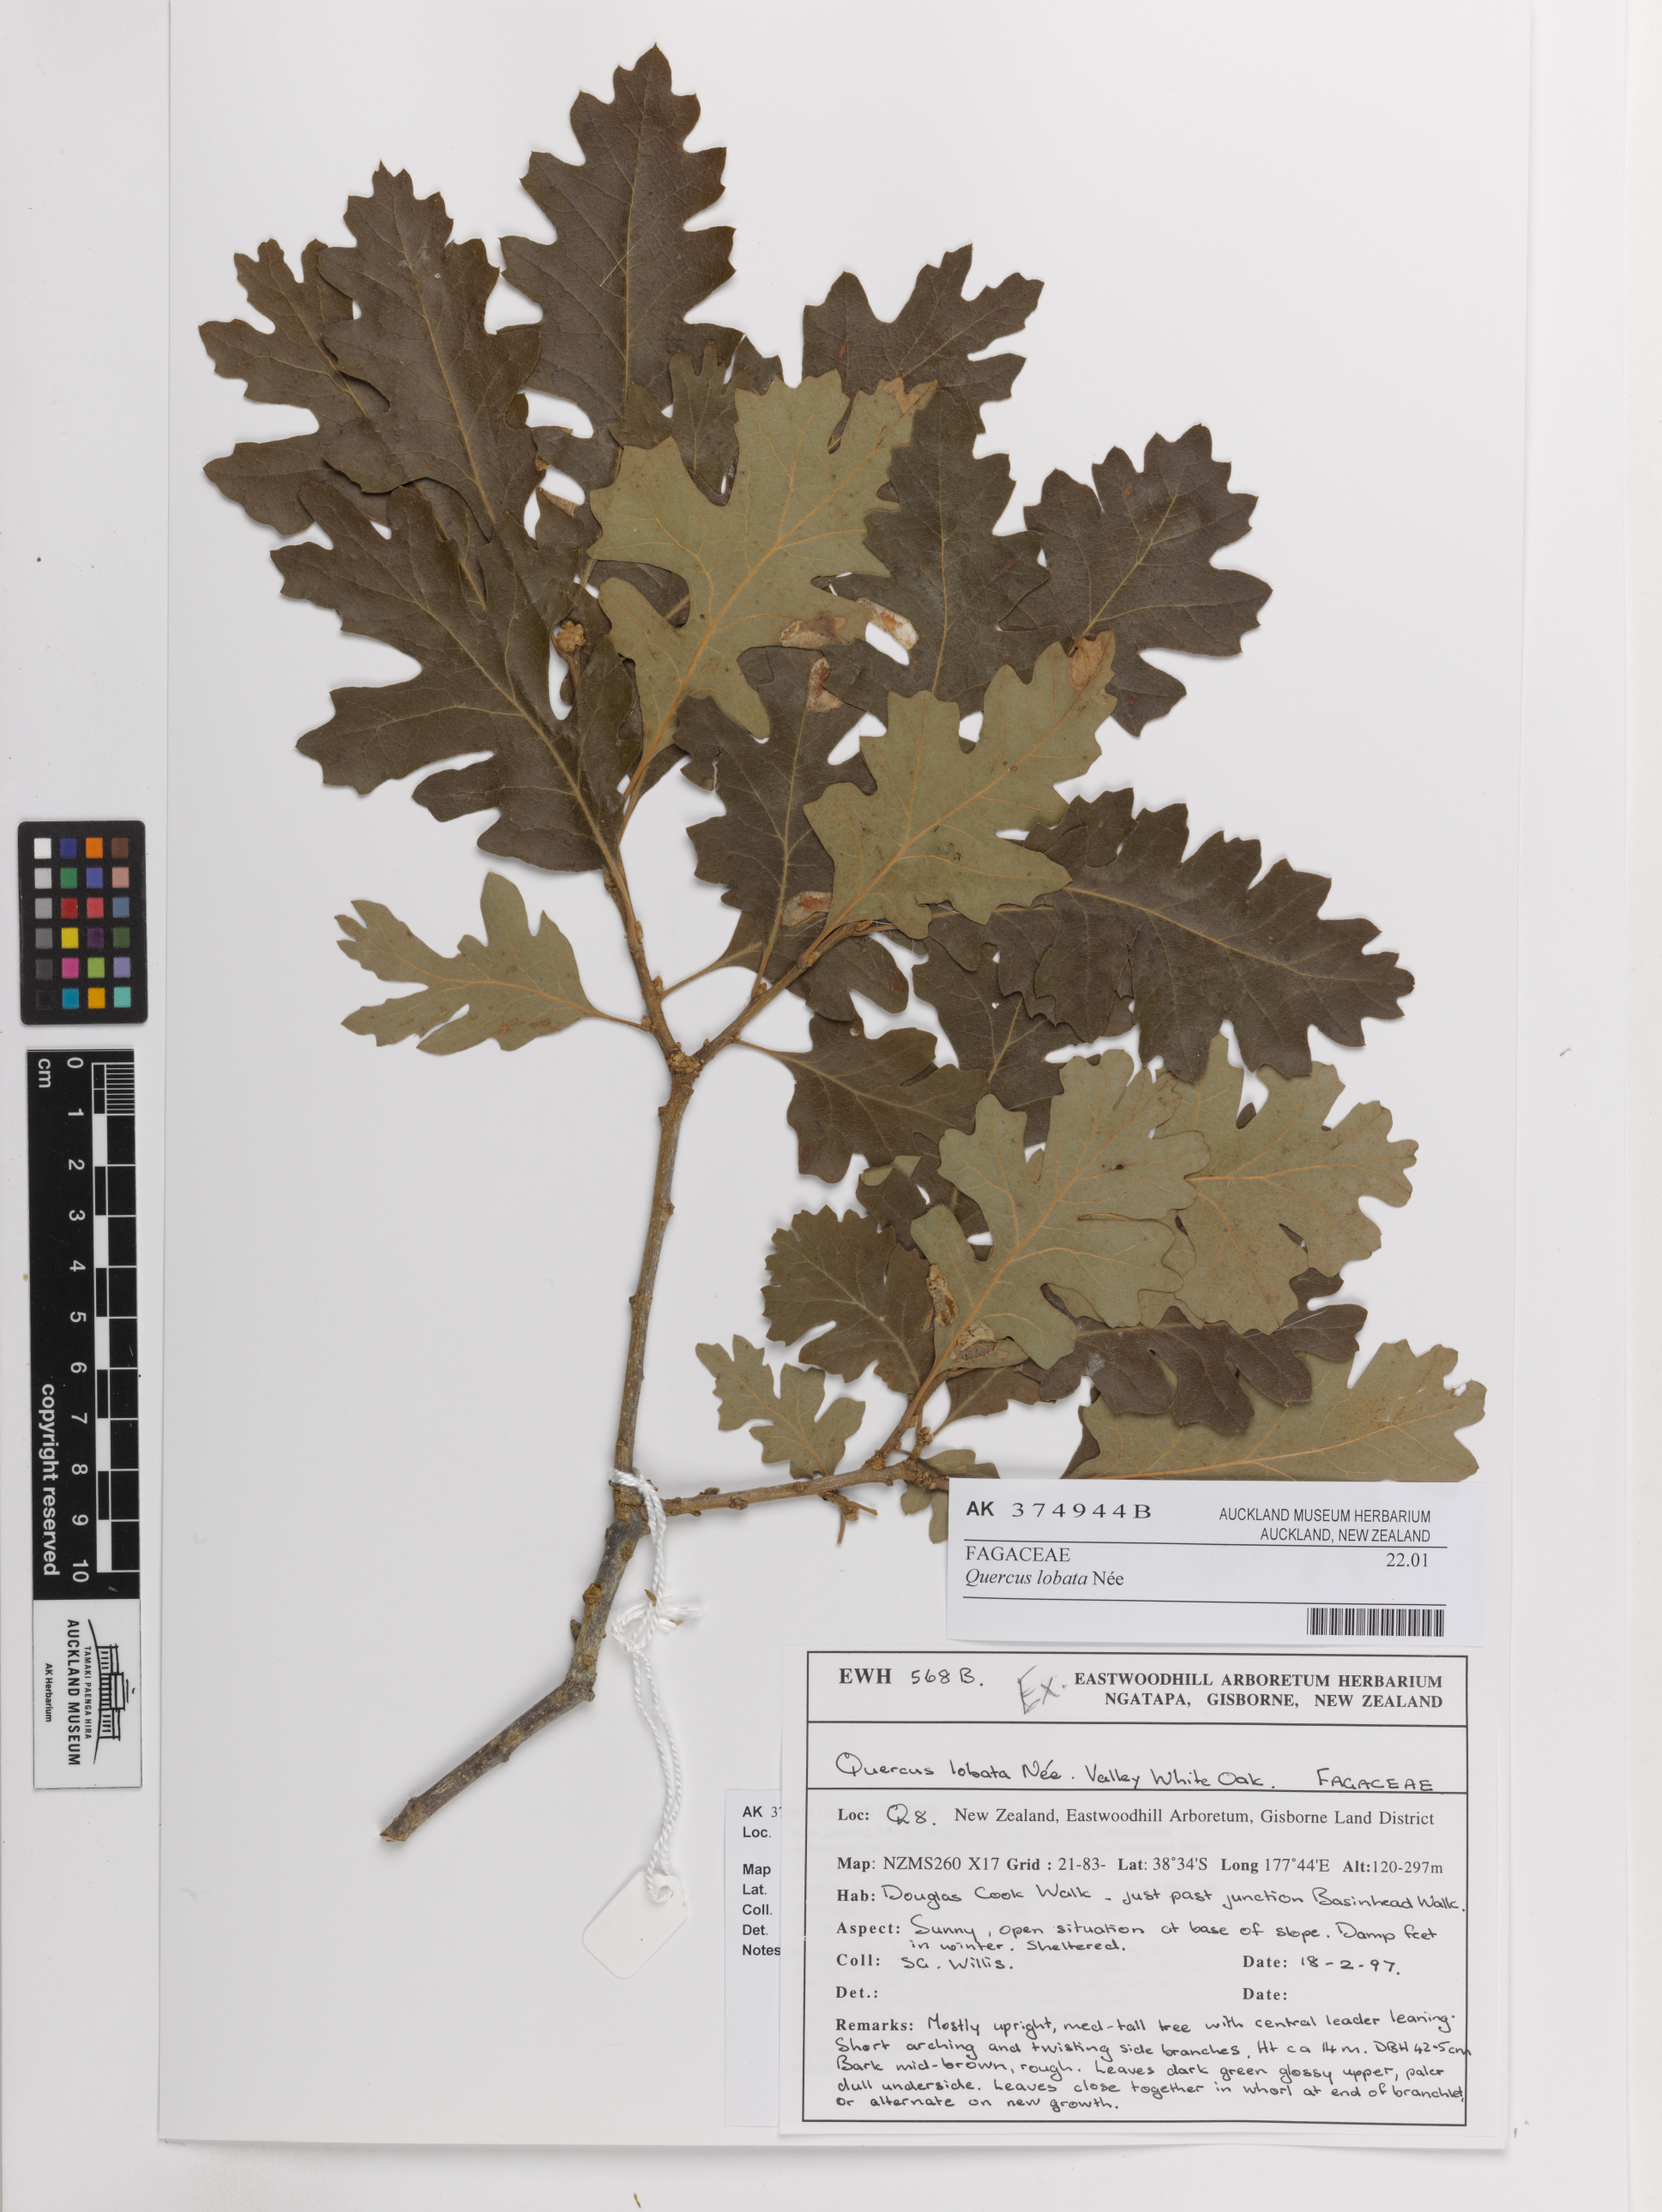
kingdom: Plantae
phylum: Tracheophyta
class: Magnoliopsida
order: Fagales
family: Fagaceae
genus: Quercus
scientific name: Quercus lobata
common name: Valley oak
